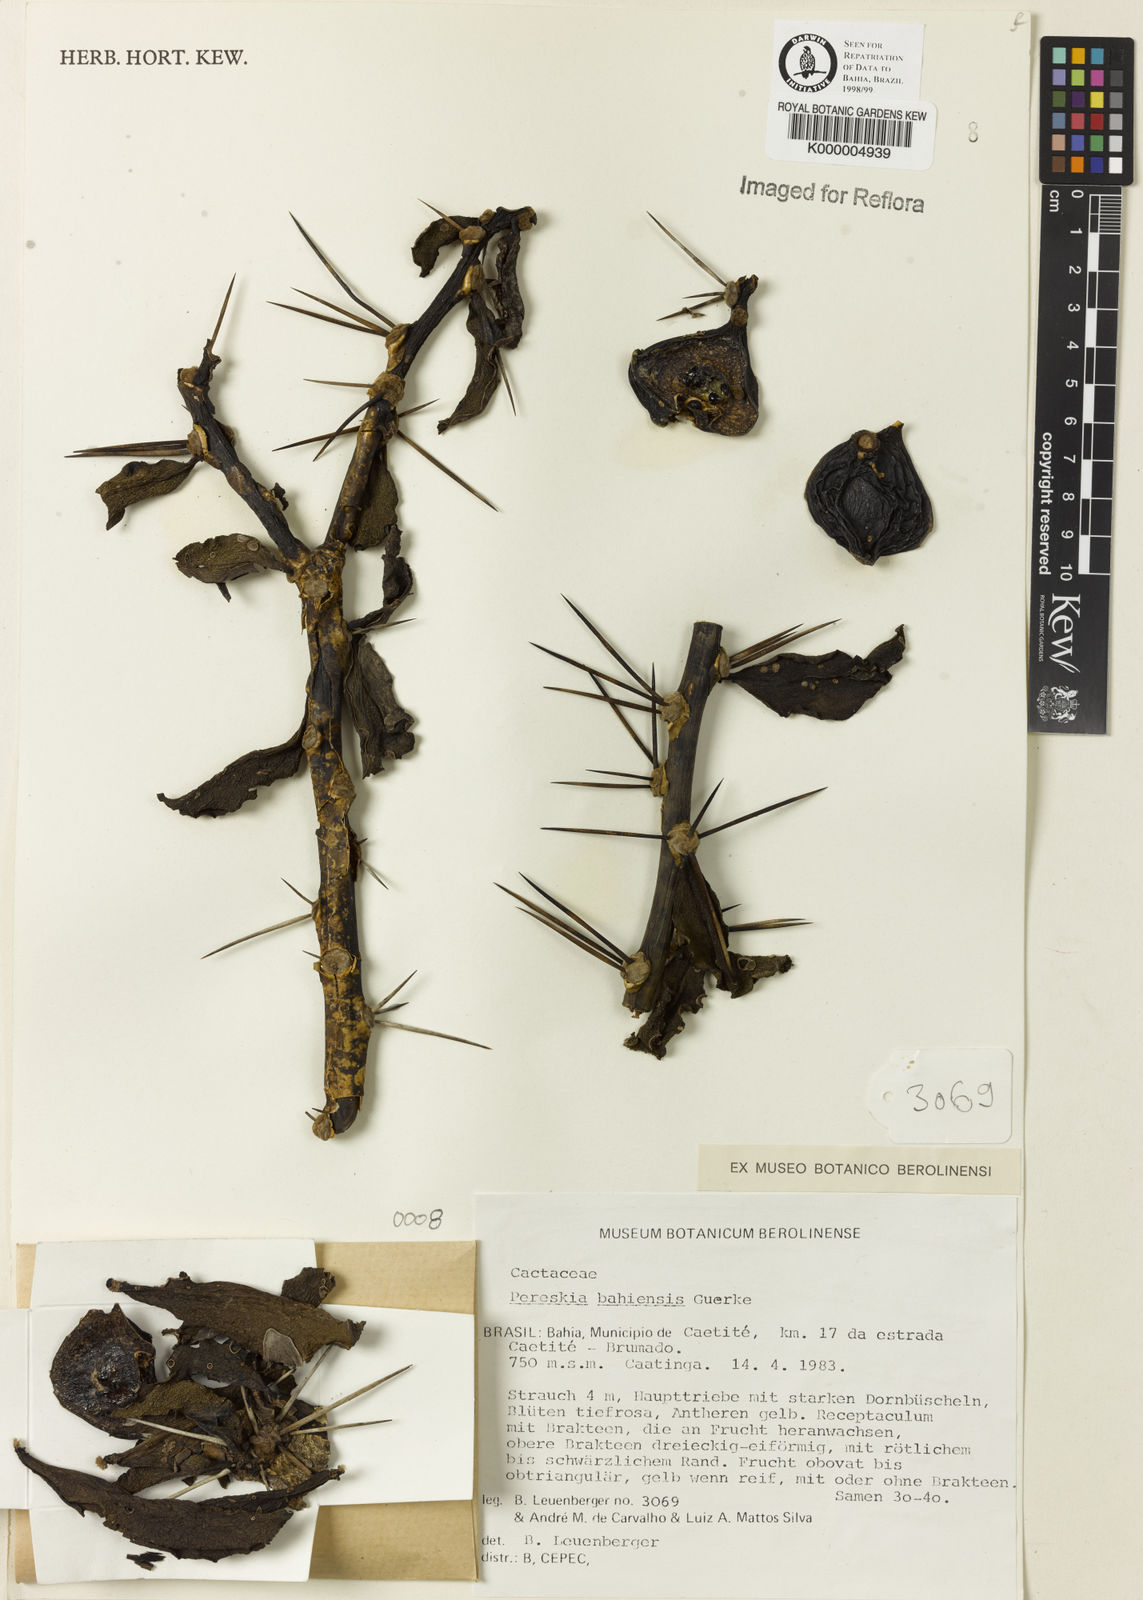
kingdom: Plantae
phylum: Tracheophyta
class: Magnoliopsida
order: Caryophyllales
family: Cactaceae
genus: Pereskia
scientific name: Pereskia
